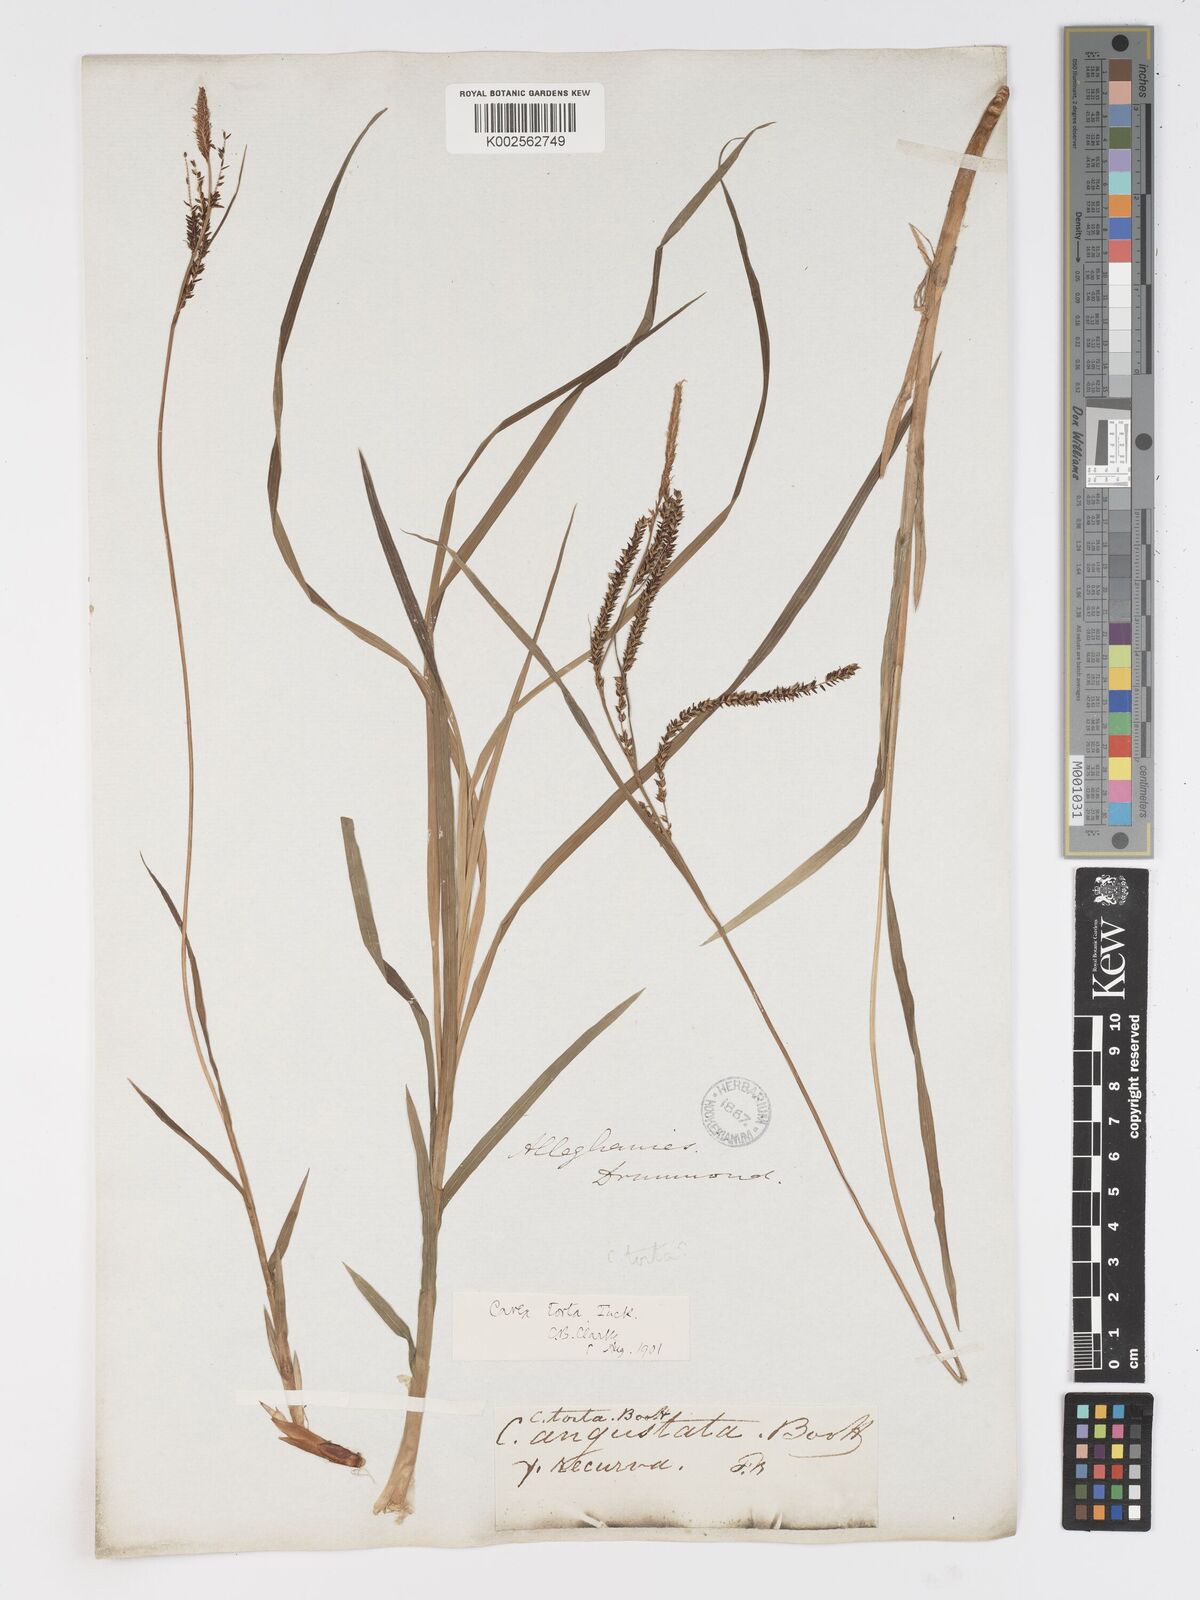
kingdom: Plantae
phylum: Tracheophyta
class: Liliopsida
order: Poales
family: Cyperaceae
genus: Carex
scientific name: Carex torta
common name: Twisted sedge
